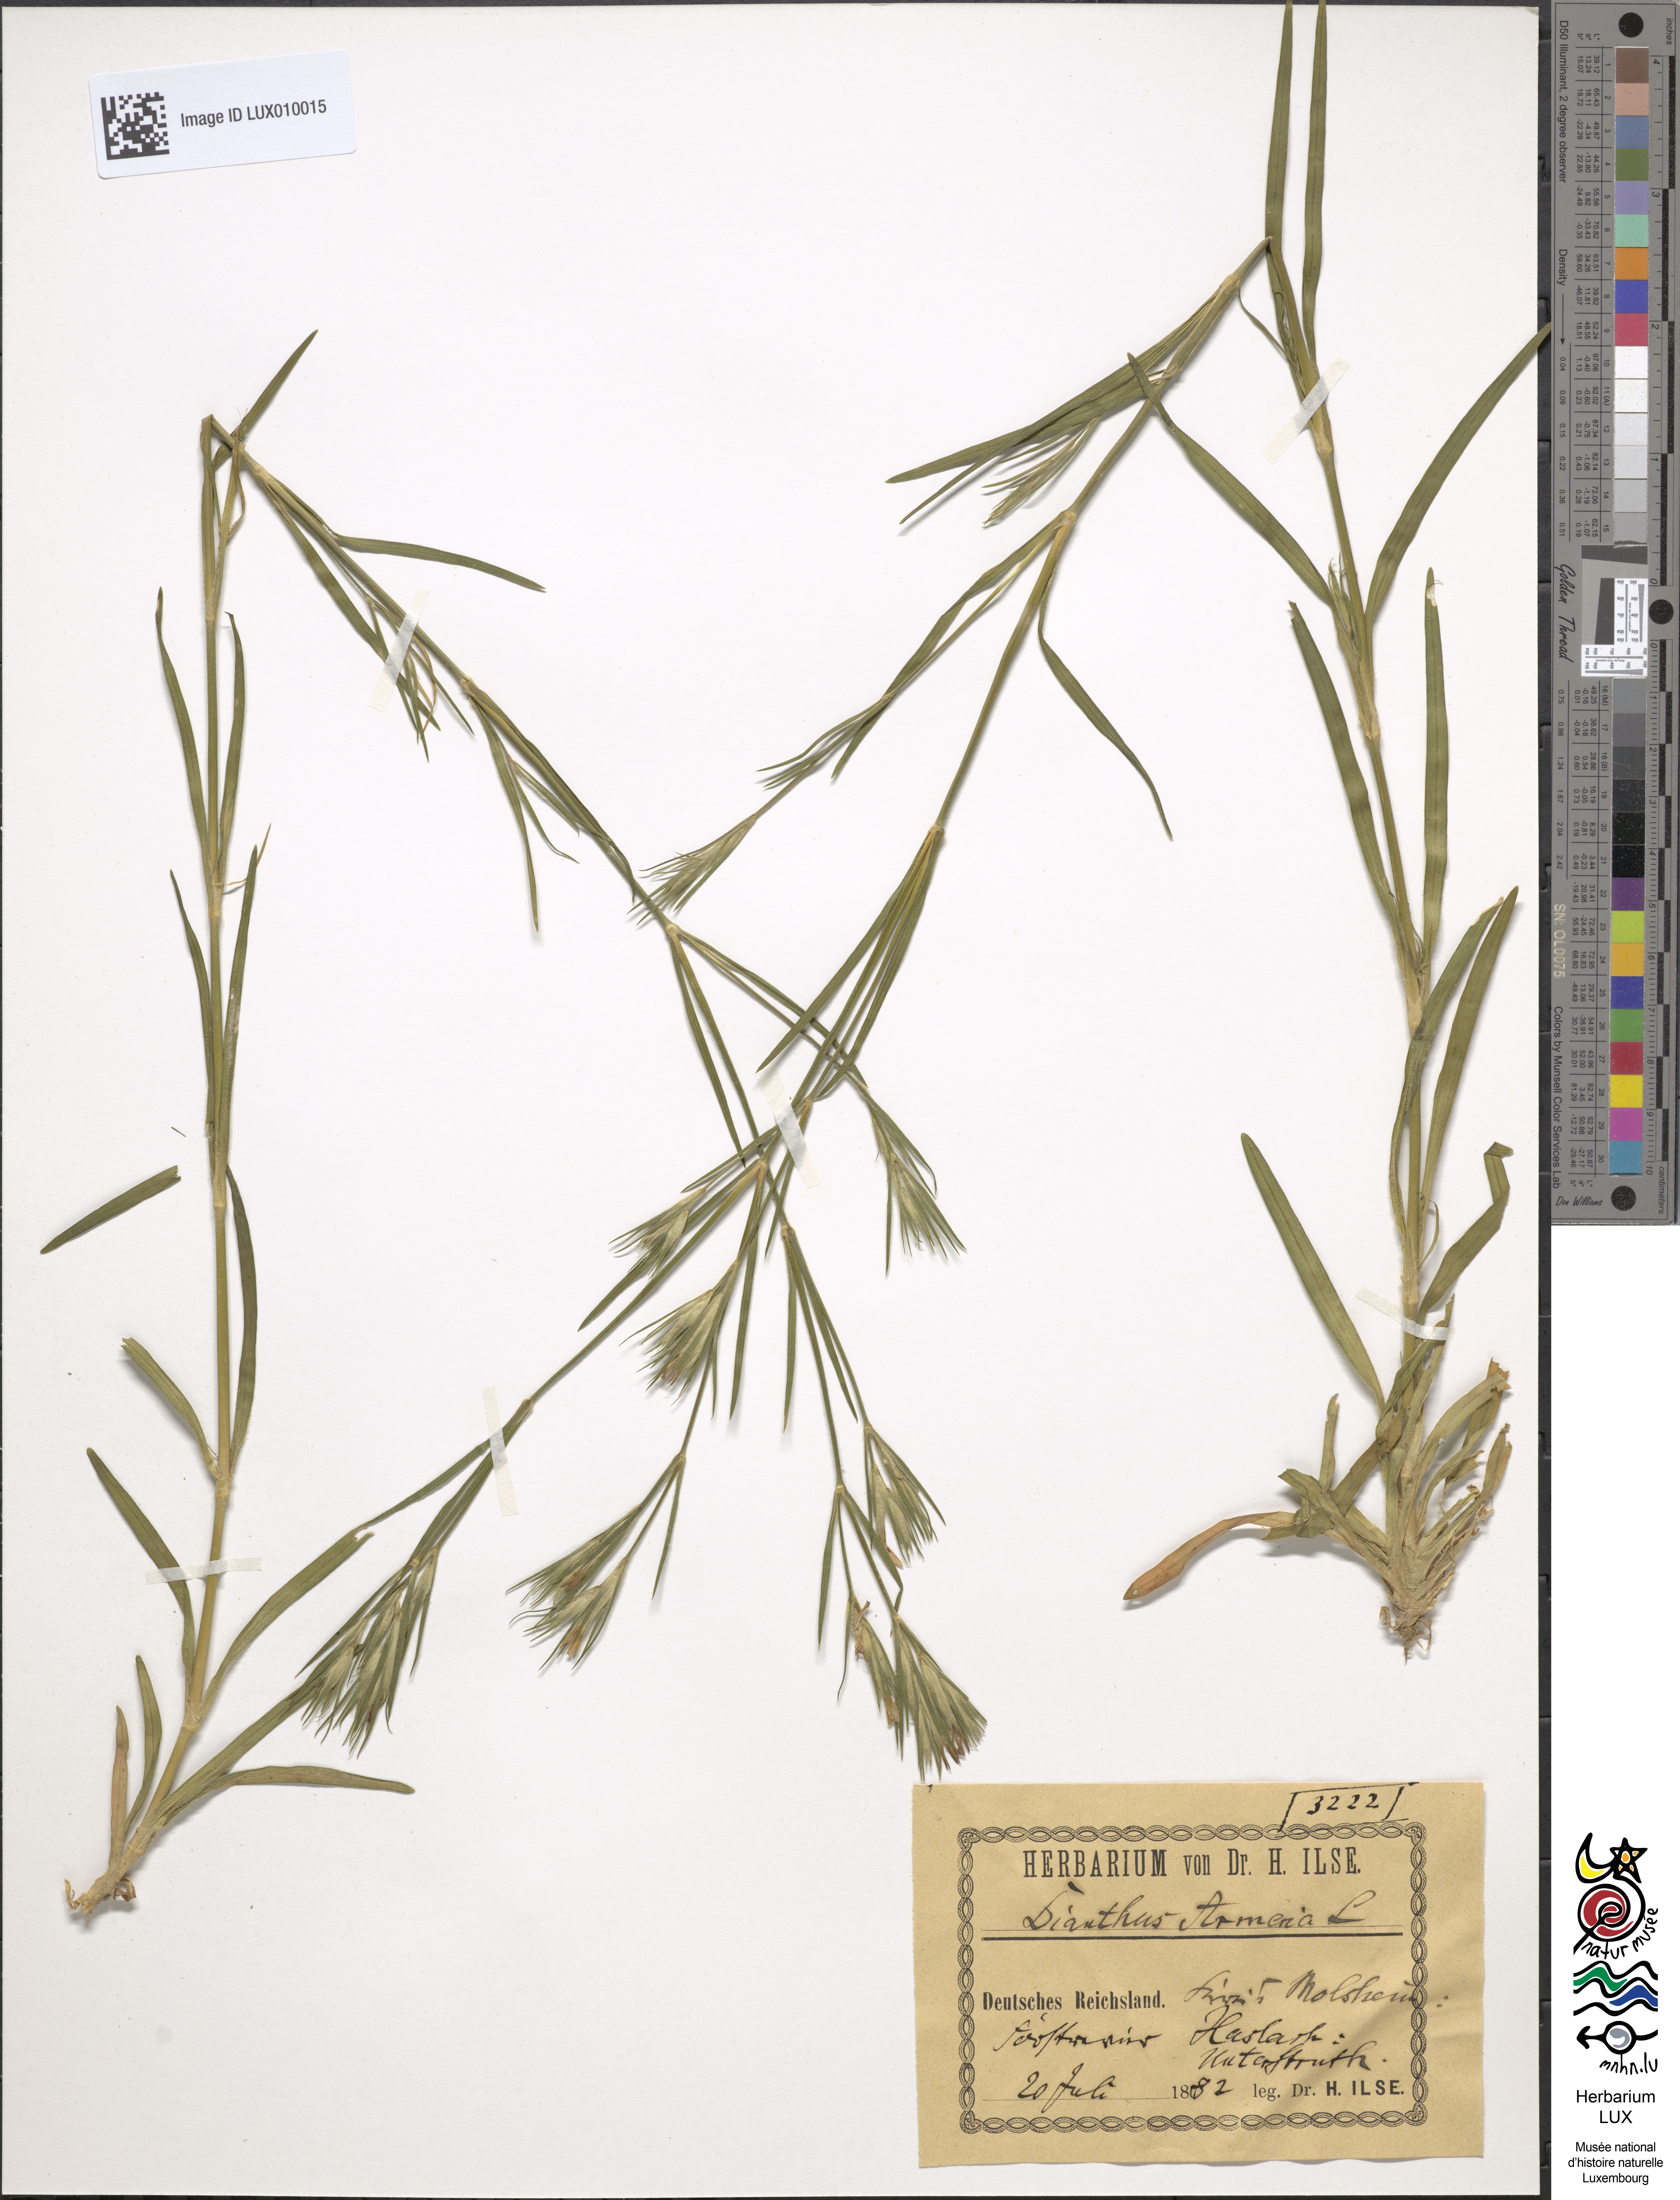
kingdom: Plantae
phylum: Tracheophyta
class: Magnoliopsida
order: Caryophyllales
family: Caryophyllaceae
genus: Dianthus
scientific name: Dianthus armeria
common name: Deptford pink
